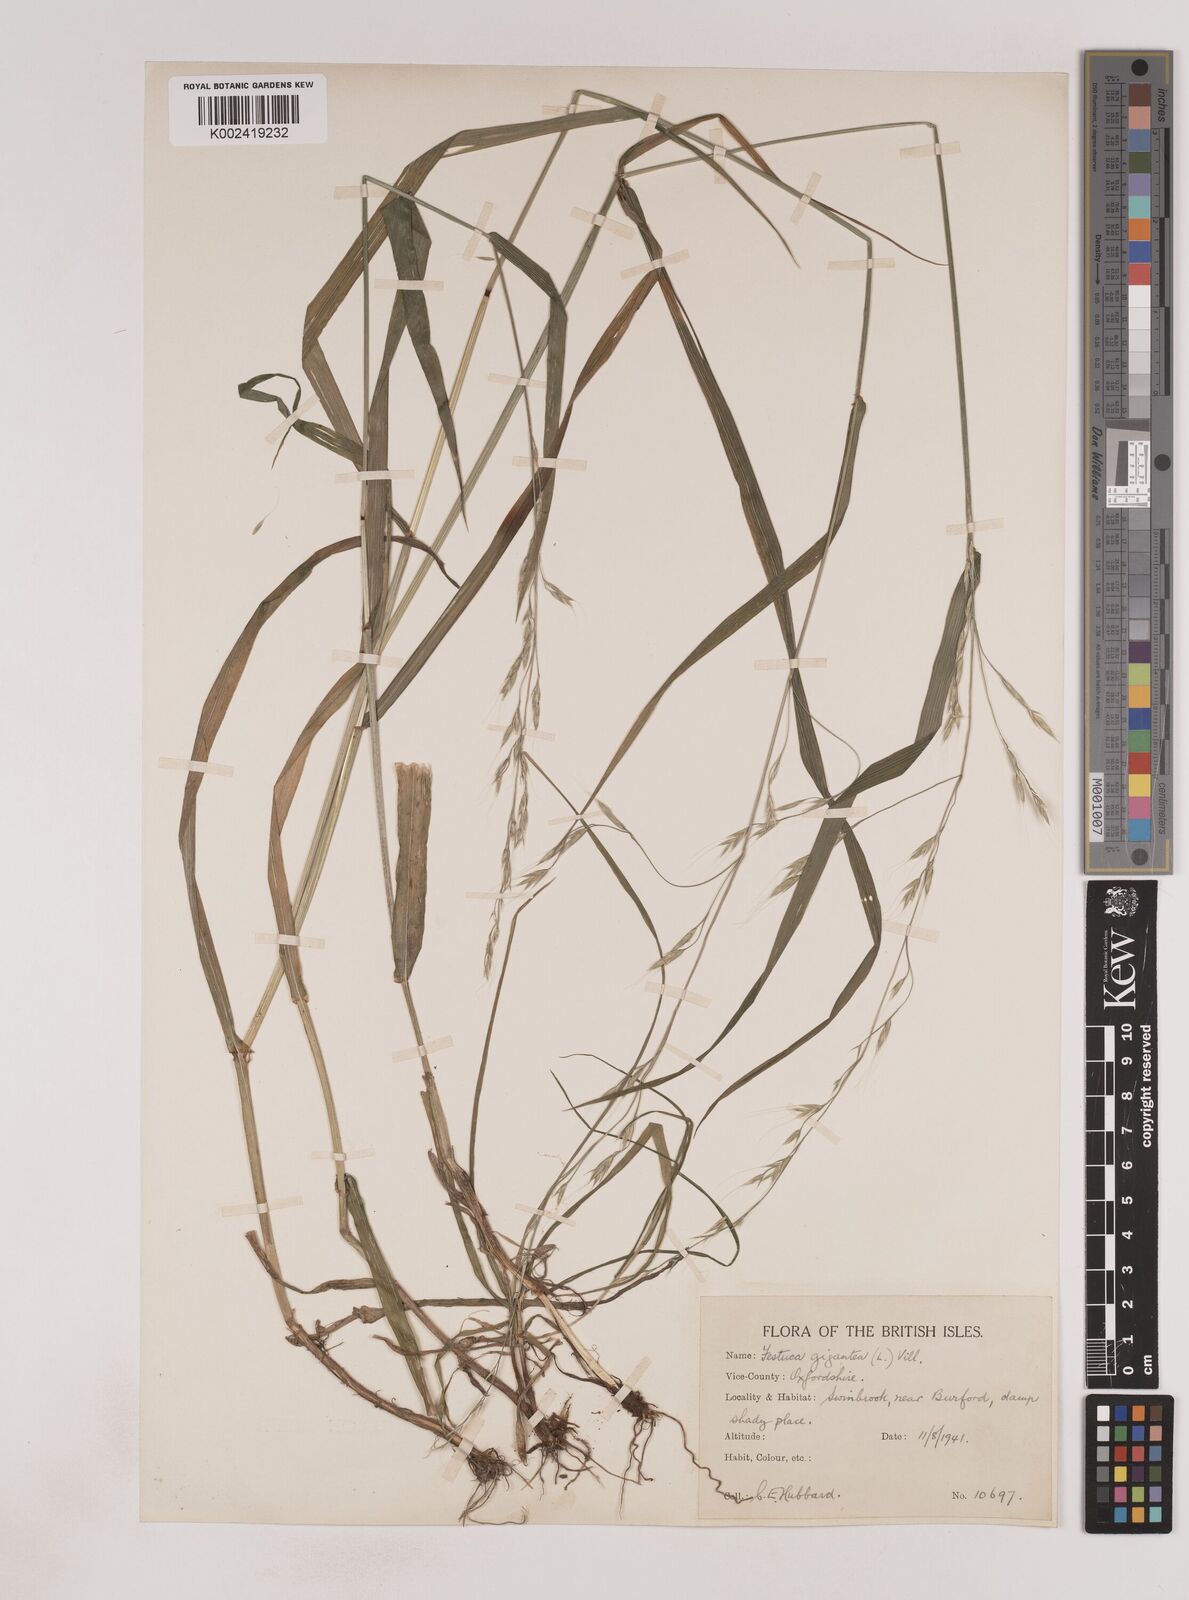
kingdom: Plantae
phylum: Tracheophyta
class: Liliopsida
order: Poales
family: Poaceae
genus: Lolium
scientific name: Lolium giganteum
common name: Giant fescue
